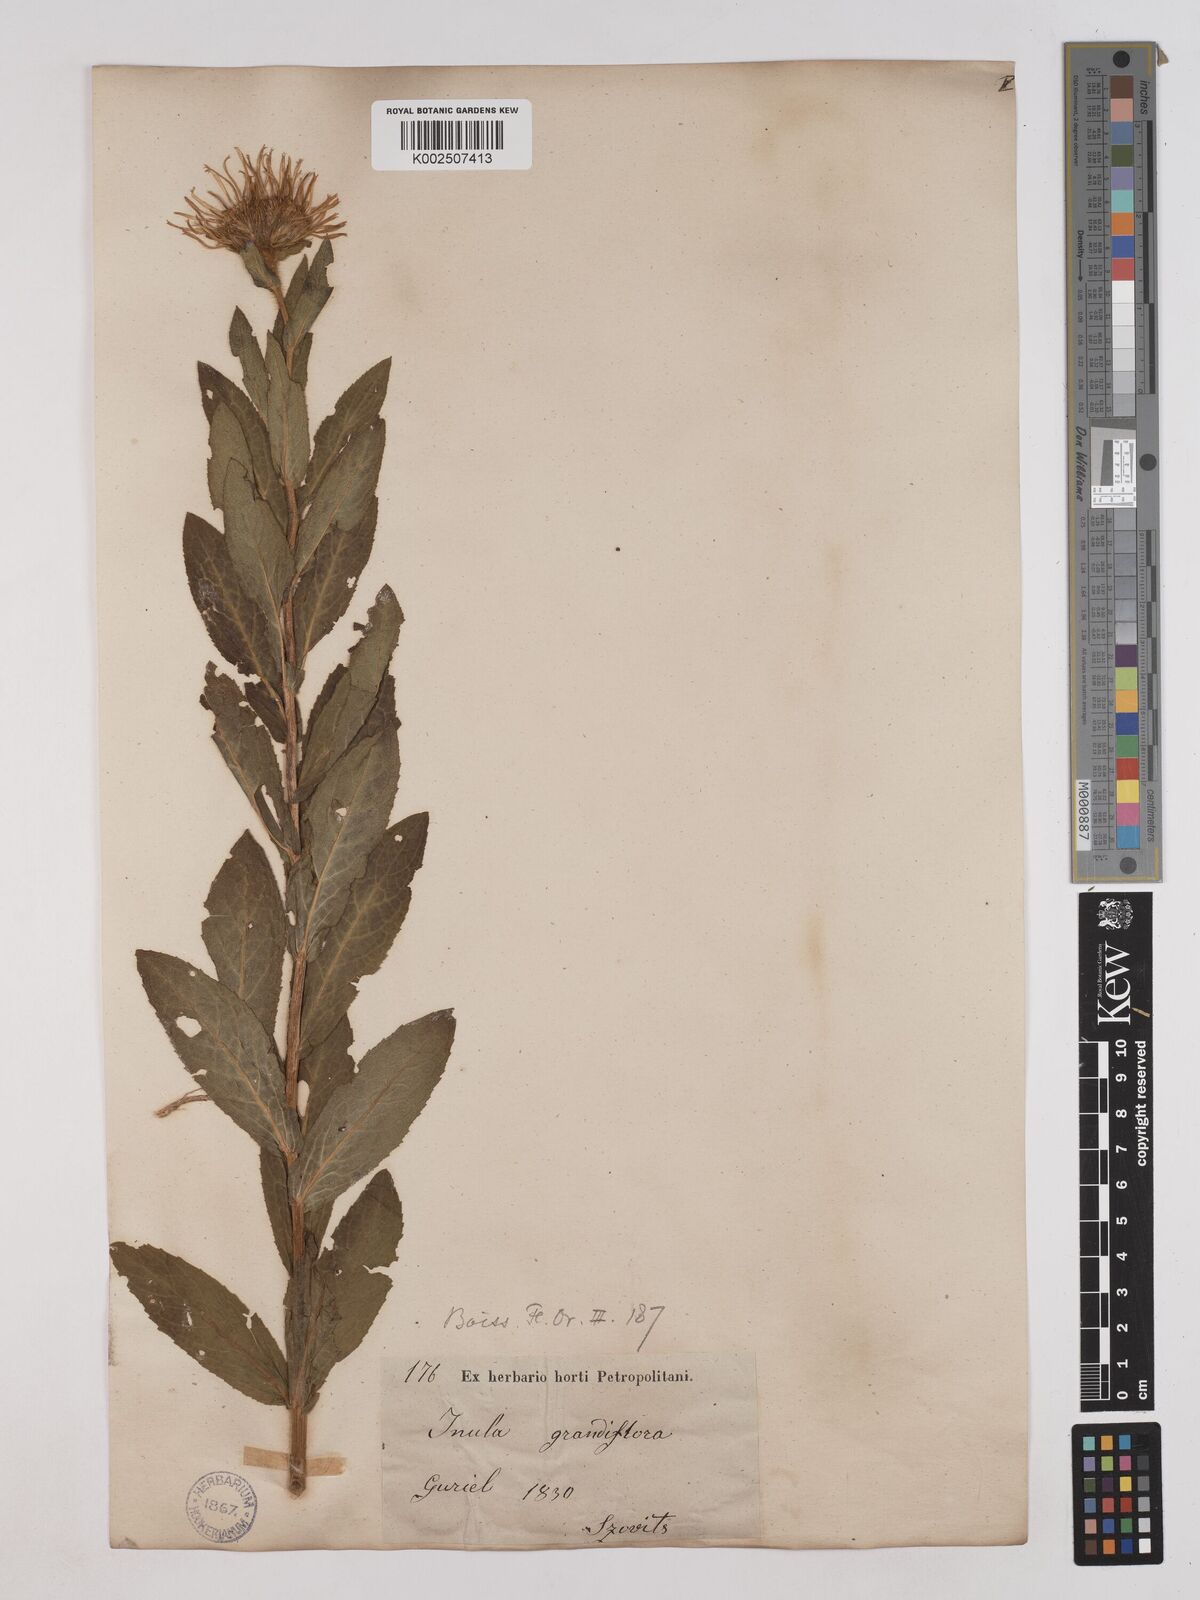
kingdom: Plantae
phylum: Tracheophyta
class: Magnoliopsida
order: Asterales
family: Asteraceae
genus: Pentanema
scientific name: Pentanema orientale
